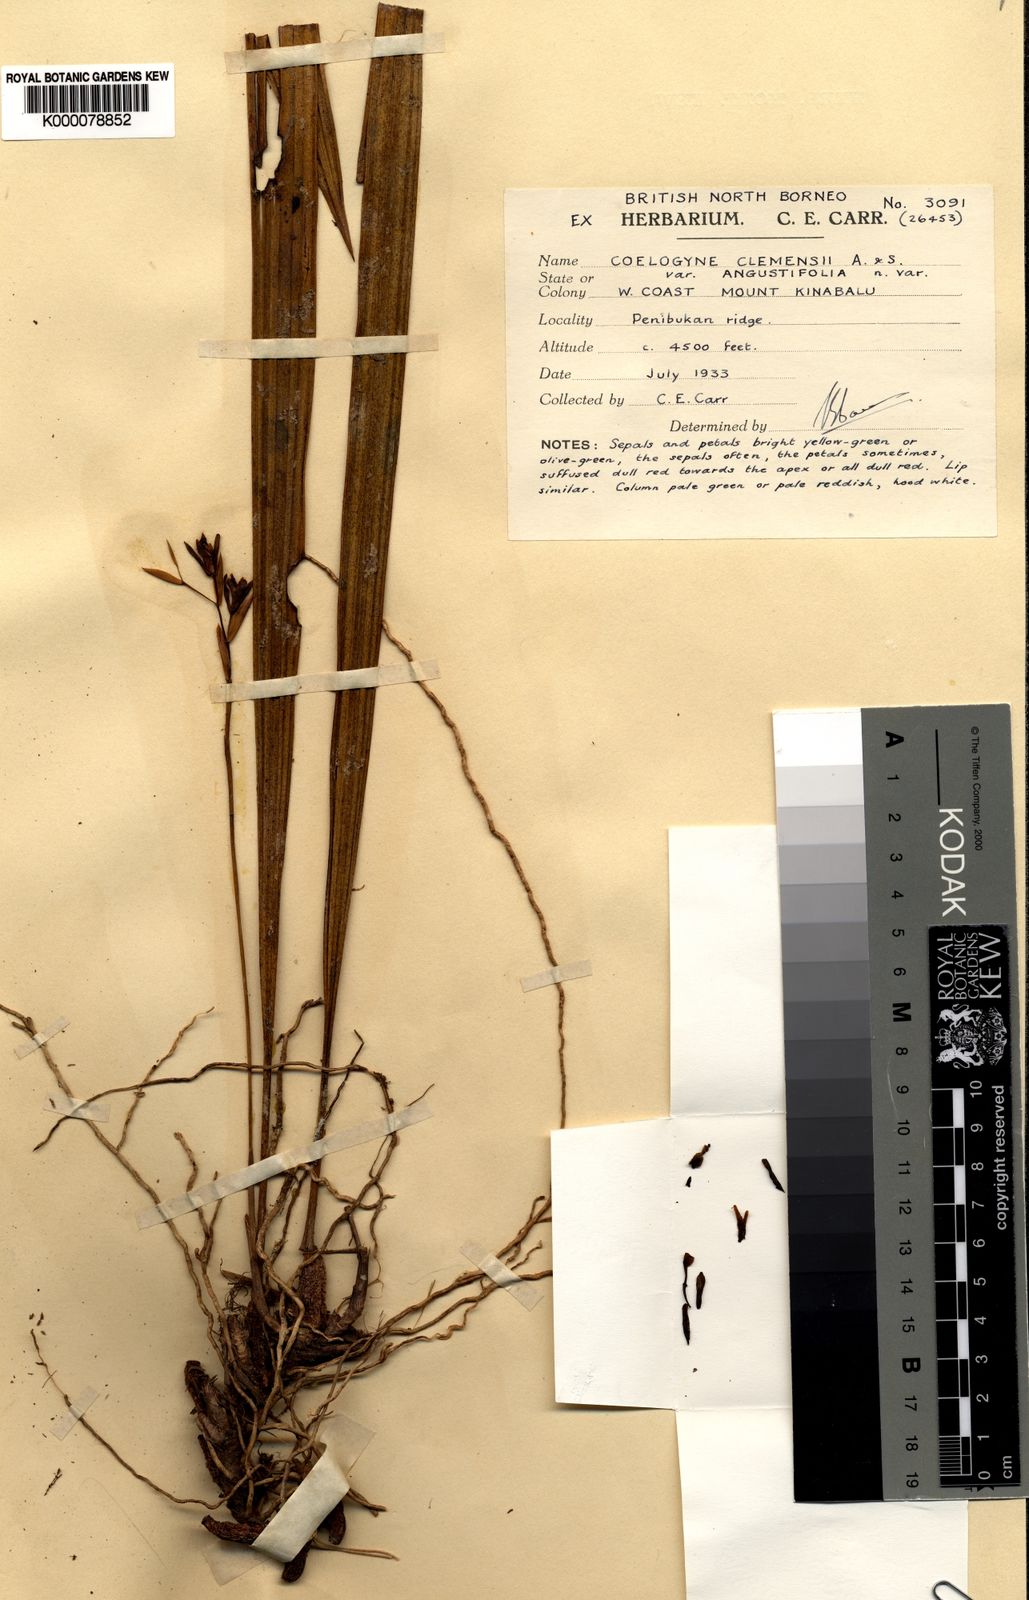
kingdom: Plantae
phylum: Tracheophyta
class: Liliopsida
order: Asparagales
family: Orchidaceae
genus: Coelogyne
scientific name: Coelogyne clemensii
